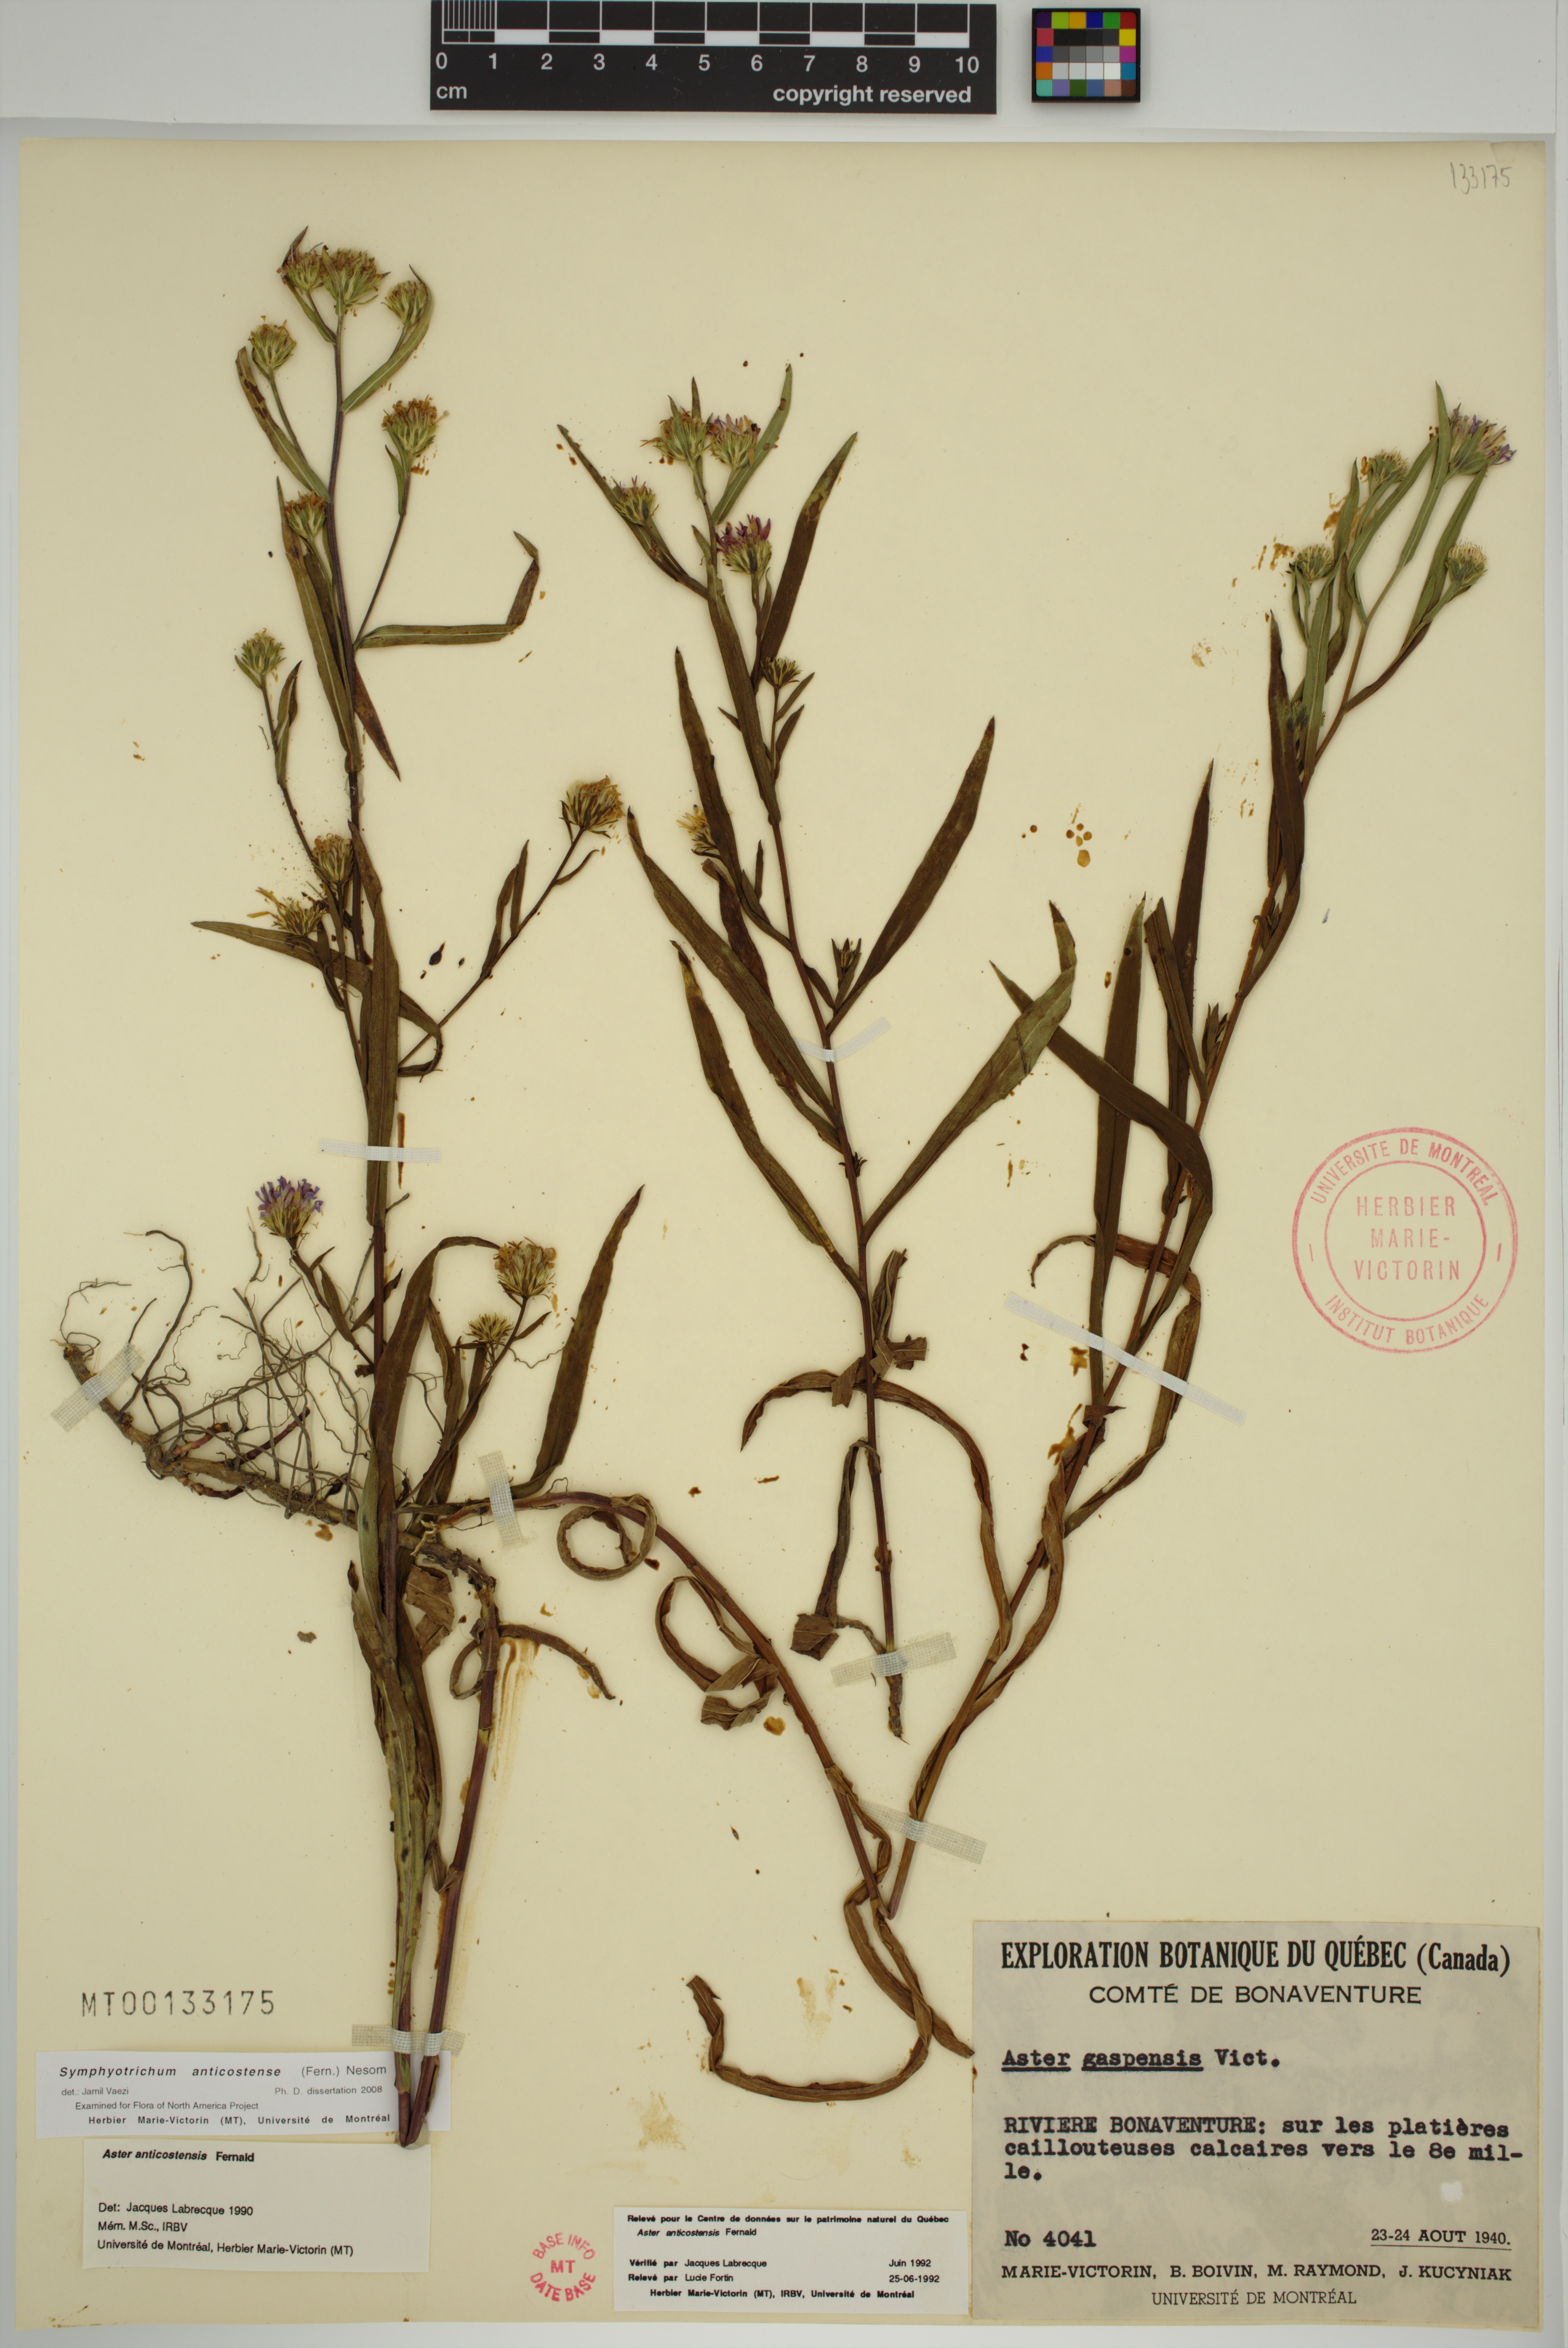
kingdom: Plantae
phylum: Tracheophyta
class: Magnoliopsida
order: Asterales
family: Asteraceae
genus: Symphyotrichum
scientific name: Symphyotrichum anticostense
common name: Anticosti island aster
